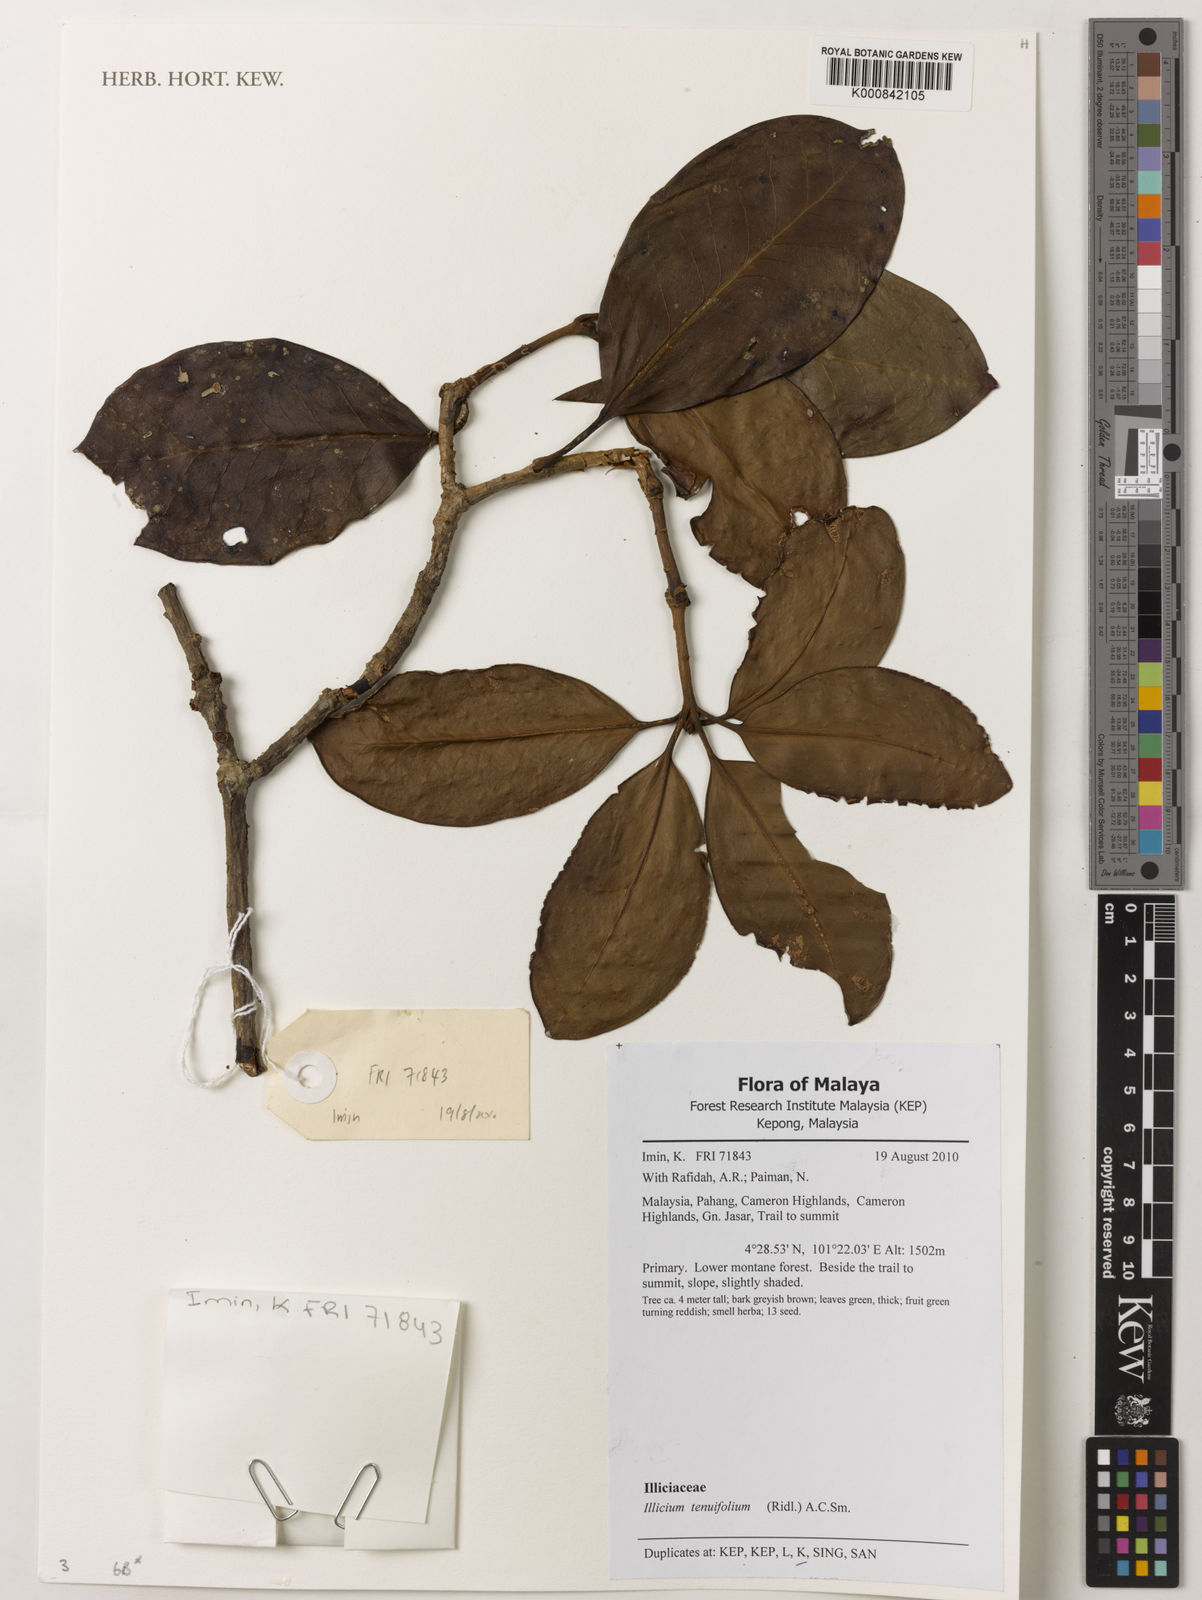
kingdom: Plantae
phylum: Tracheophyta
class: Magnoliopsida
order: Austrobaileyales
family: Schisandraceae
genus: Illicium
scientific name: Illicium tenuifolium
